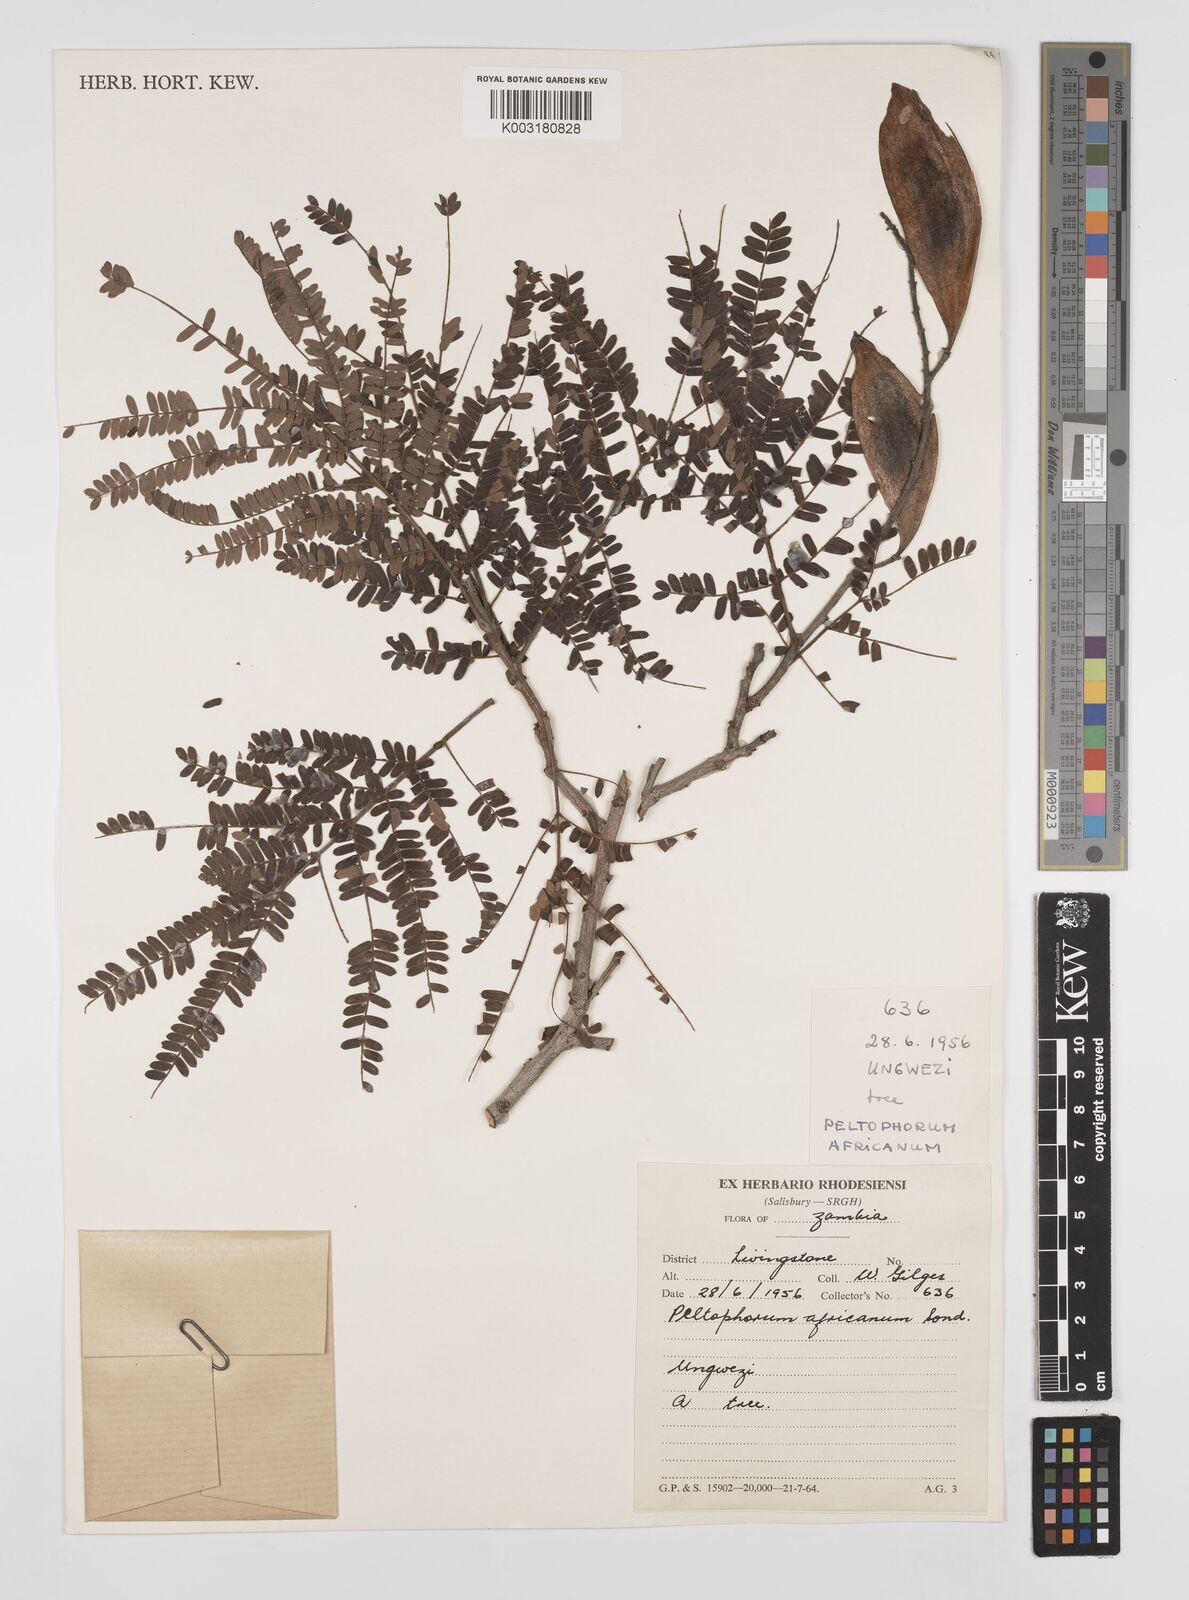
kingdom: Plantae
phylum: Tracheophyta
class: Magnoliopsida
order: Fabales
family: Fabaceae
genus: Peltophorum
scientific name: Peltophorum africanum
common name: African black wattle
